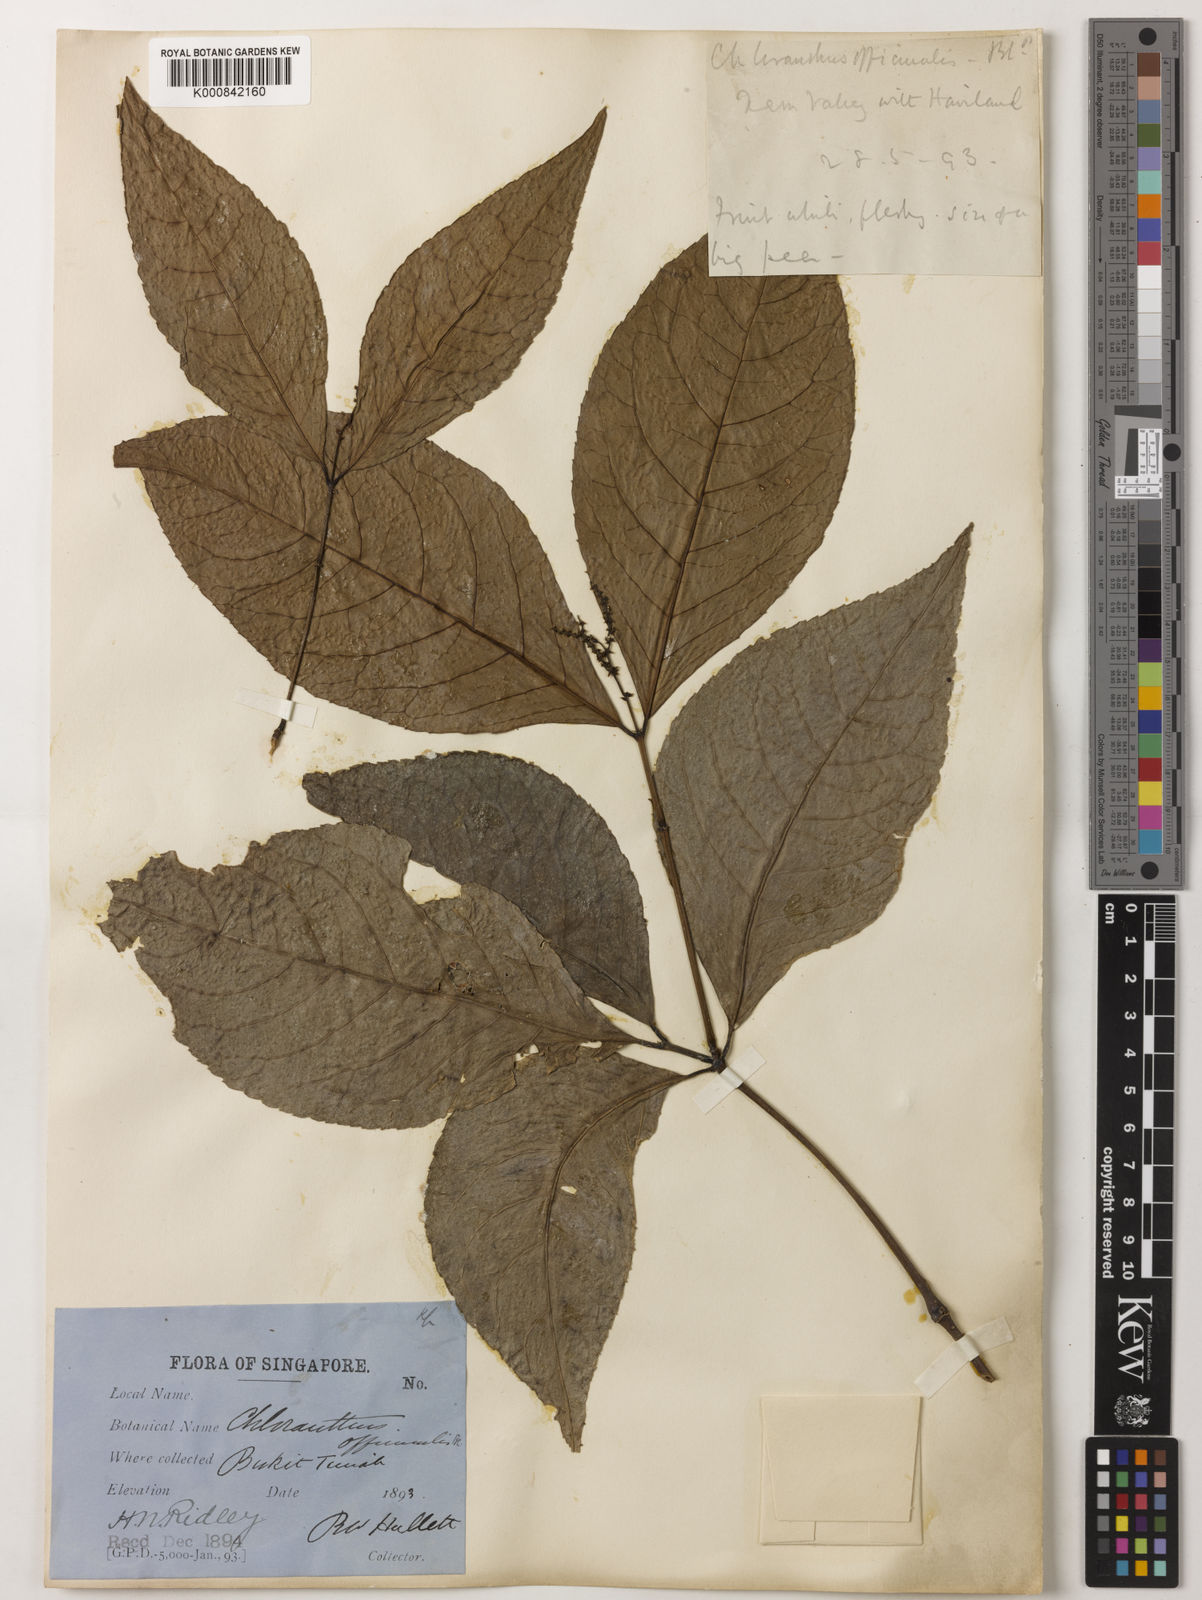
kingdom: Plantae
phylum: Tracheophyta
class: Magnoliopsida
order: Chloranthales
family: Chloranthaceae
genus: Chloranthus
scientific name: Chloranthus
